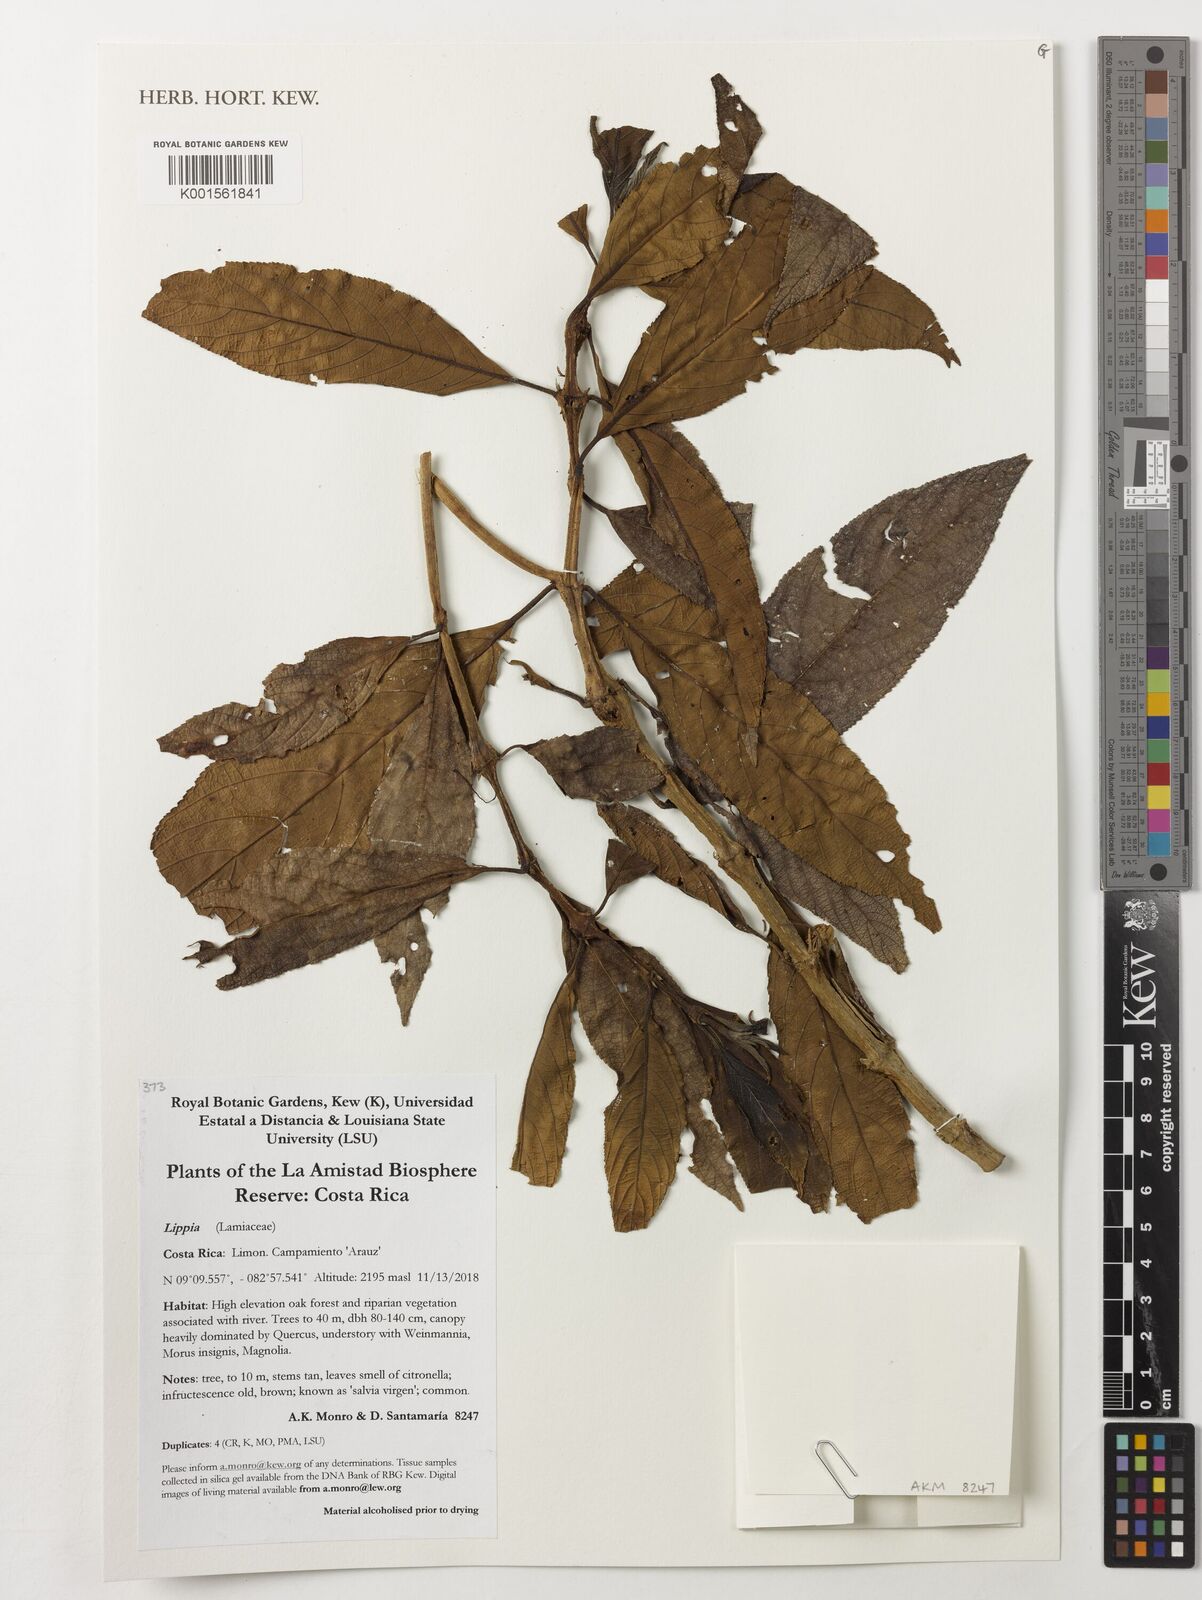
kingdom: Plantae
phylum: Tracheophyta
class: Magnoliopsida
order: Lamiales
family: Verbenaceae
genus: Lippia
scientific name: Lippia
